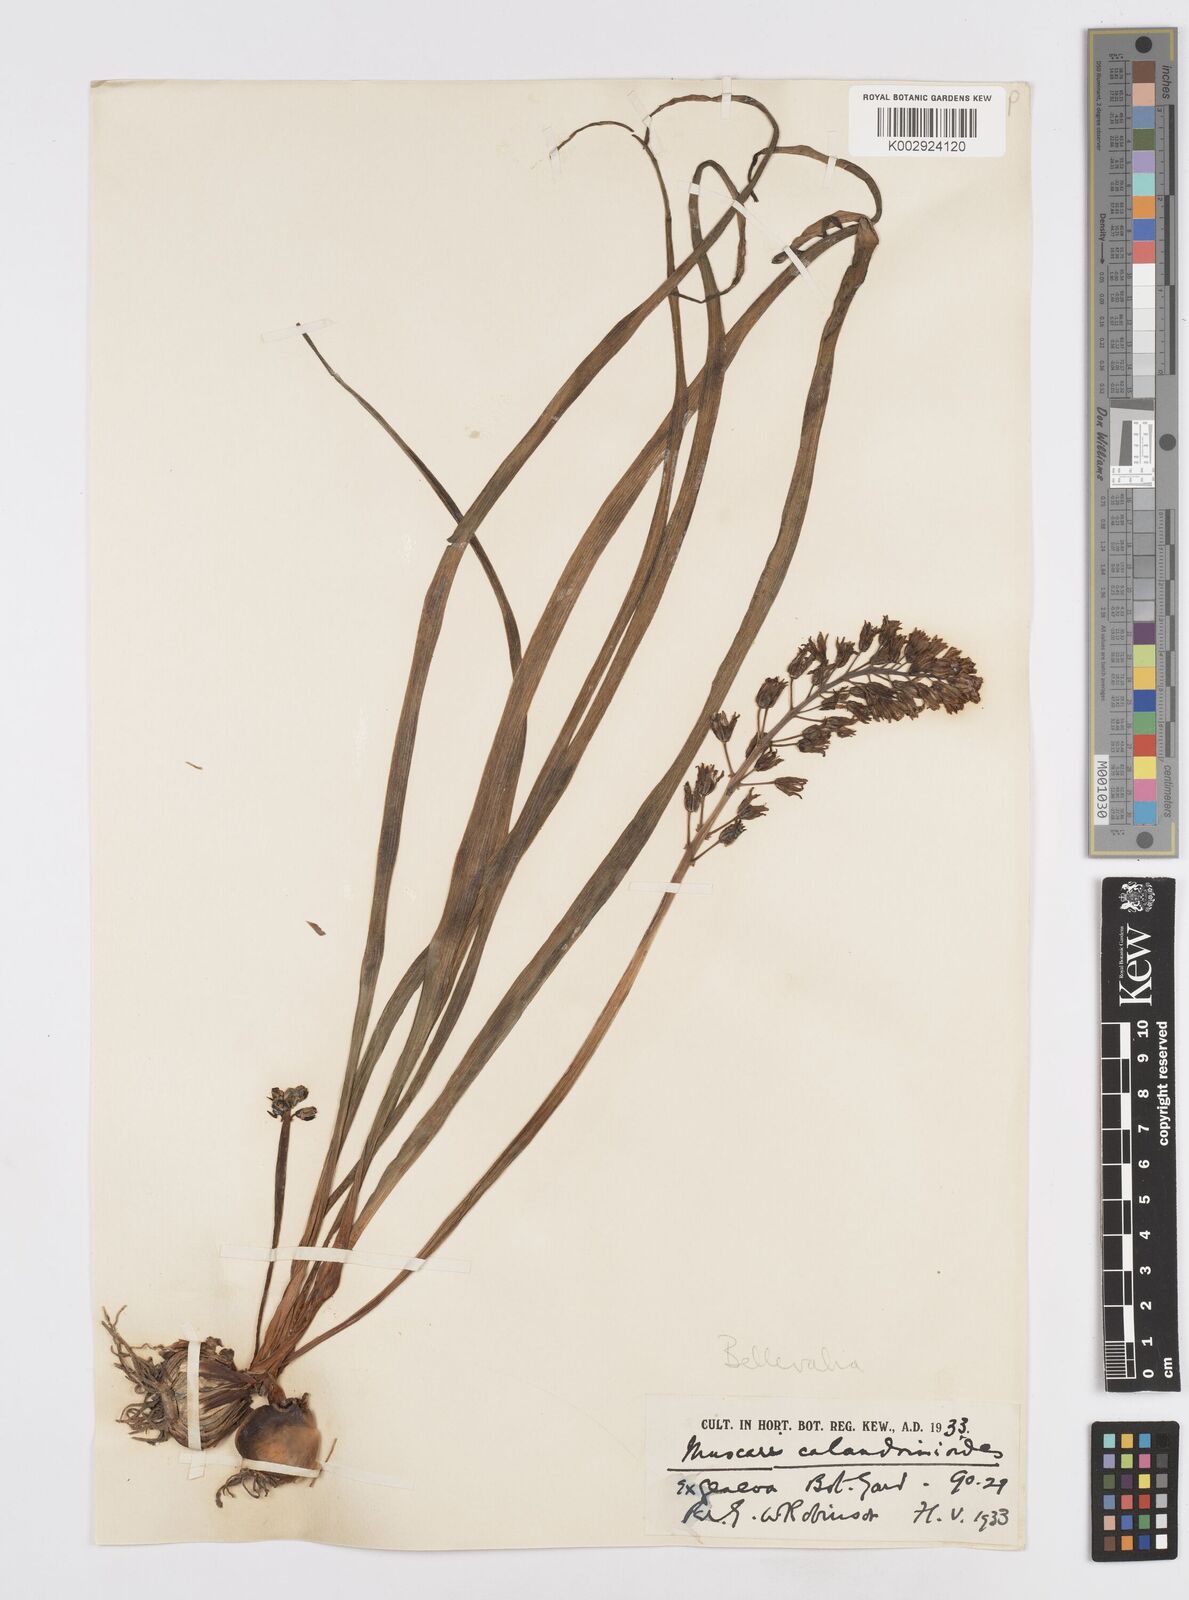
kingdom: Plantae
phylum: Tracheophyta
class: Liliopsida
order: Asparagales
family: Asparagaceae
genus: Bellevalia
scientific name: Bellevalia
